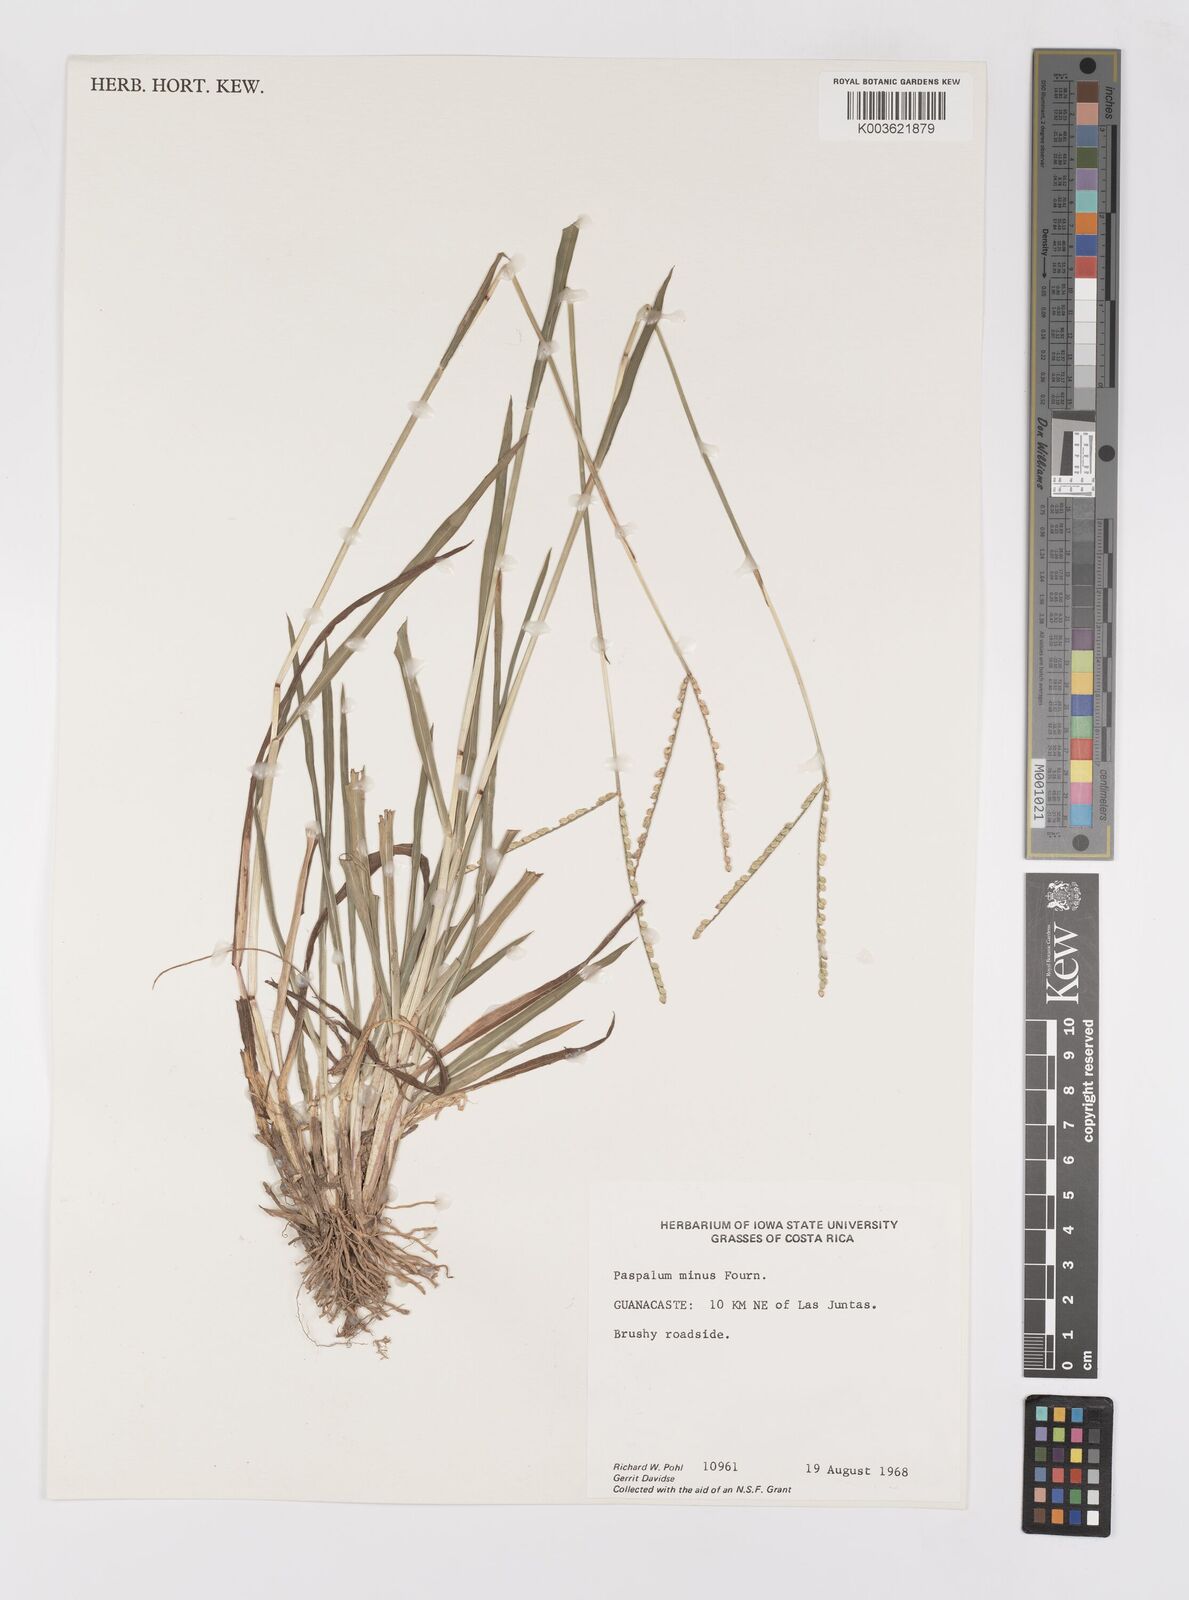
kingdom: Plantae
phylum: Tracheophyta
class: Liliopsida
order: Poales
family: Poaceae
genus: Paspalum
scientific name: Paspalum minus
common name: Matted paspalum
